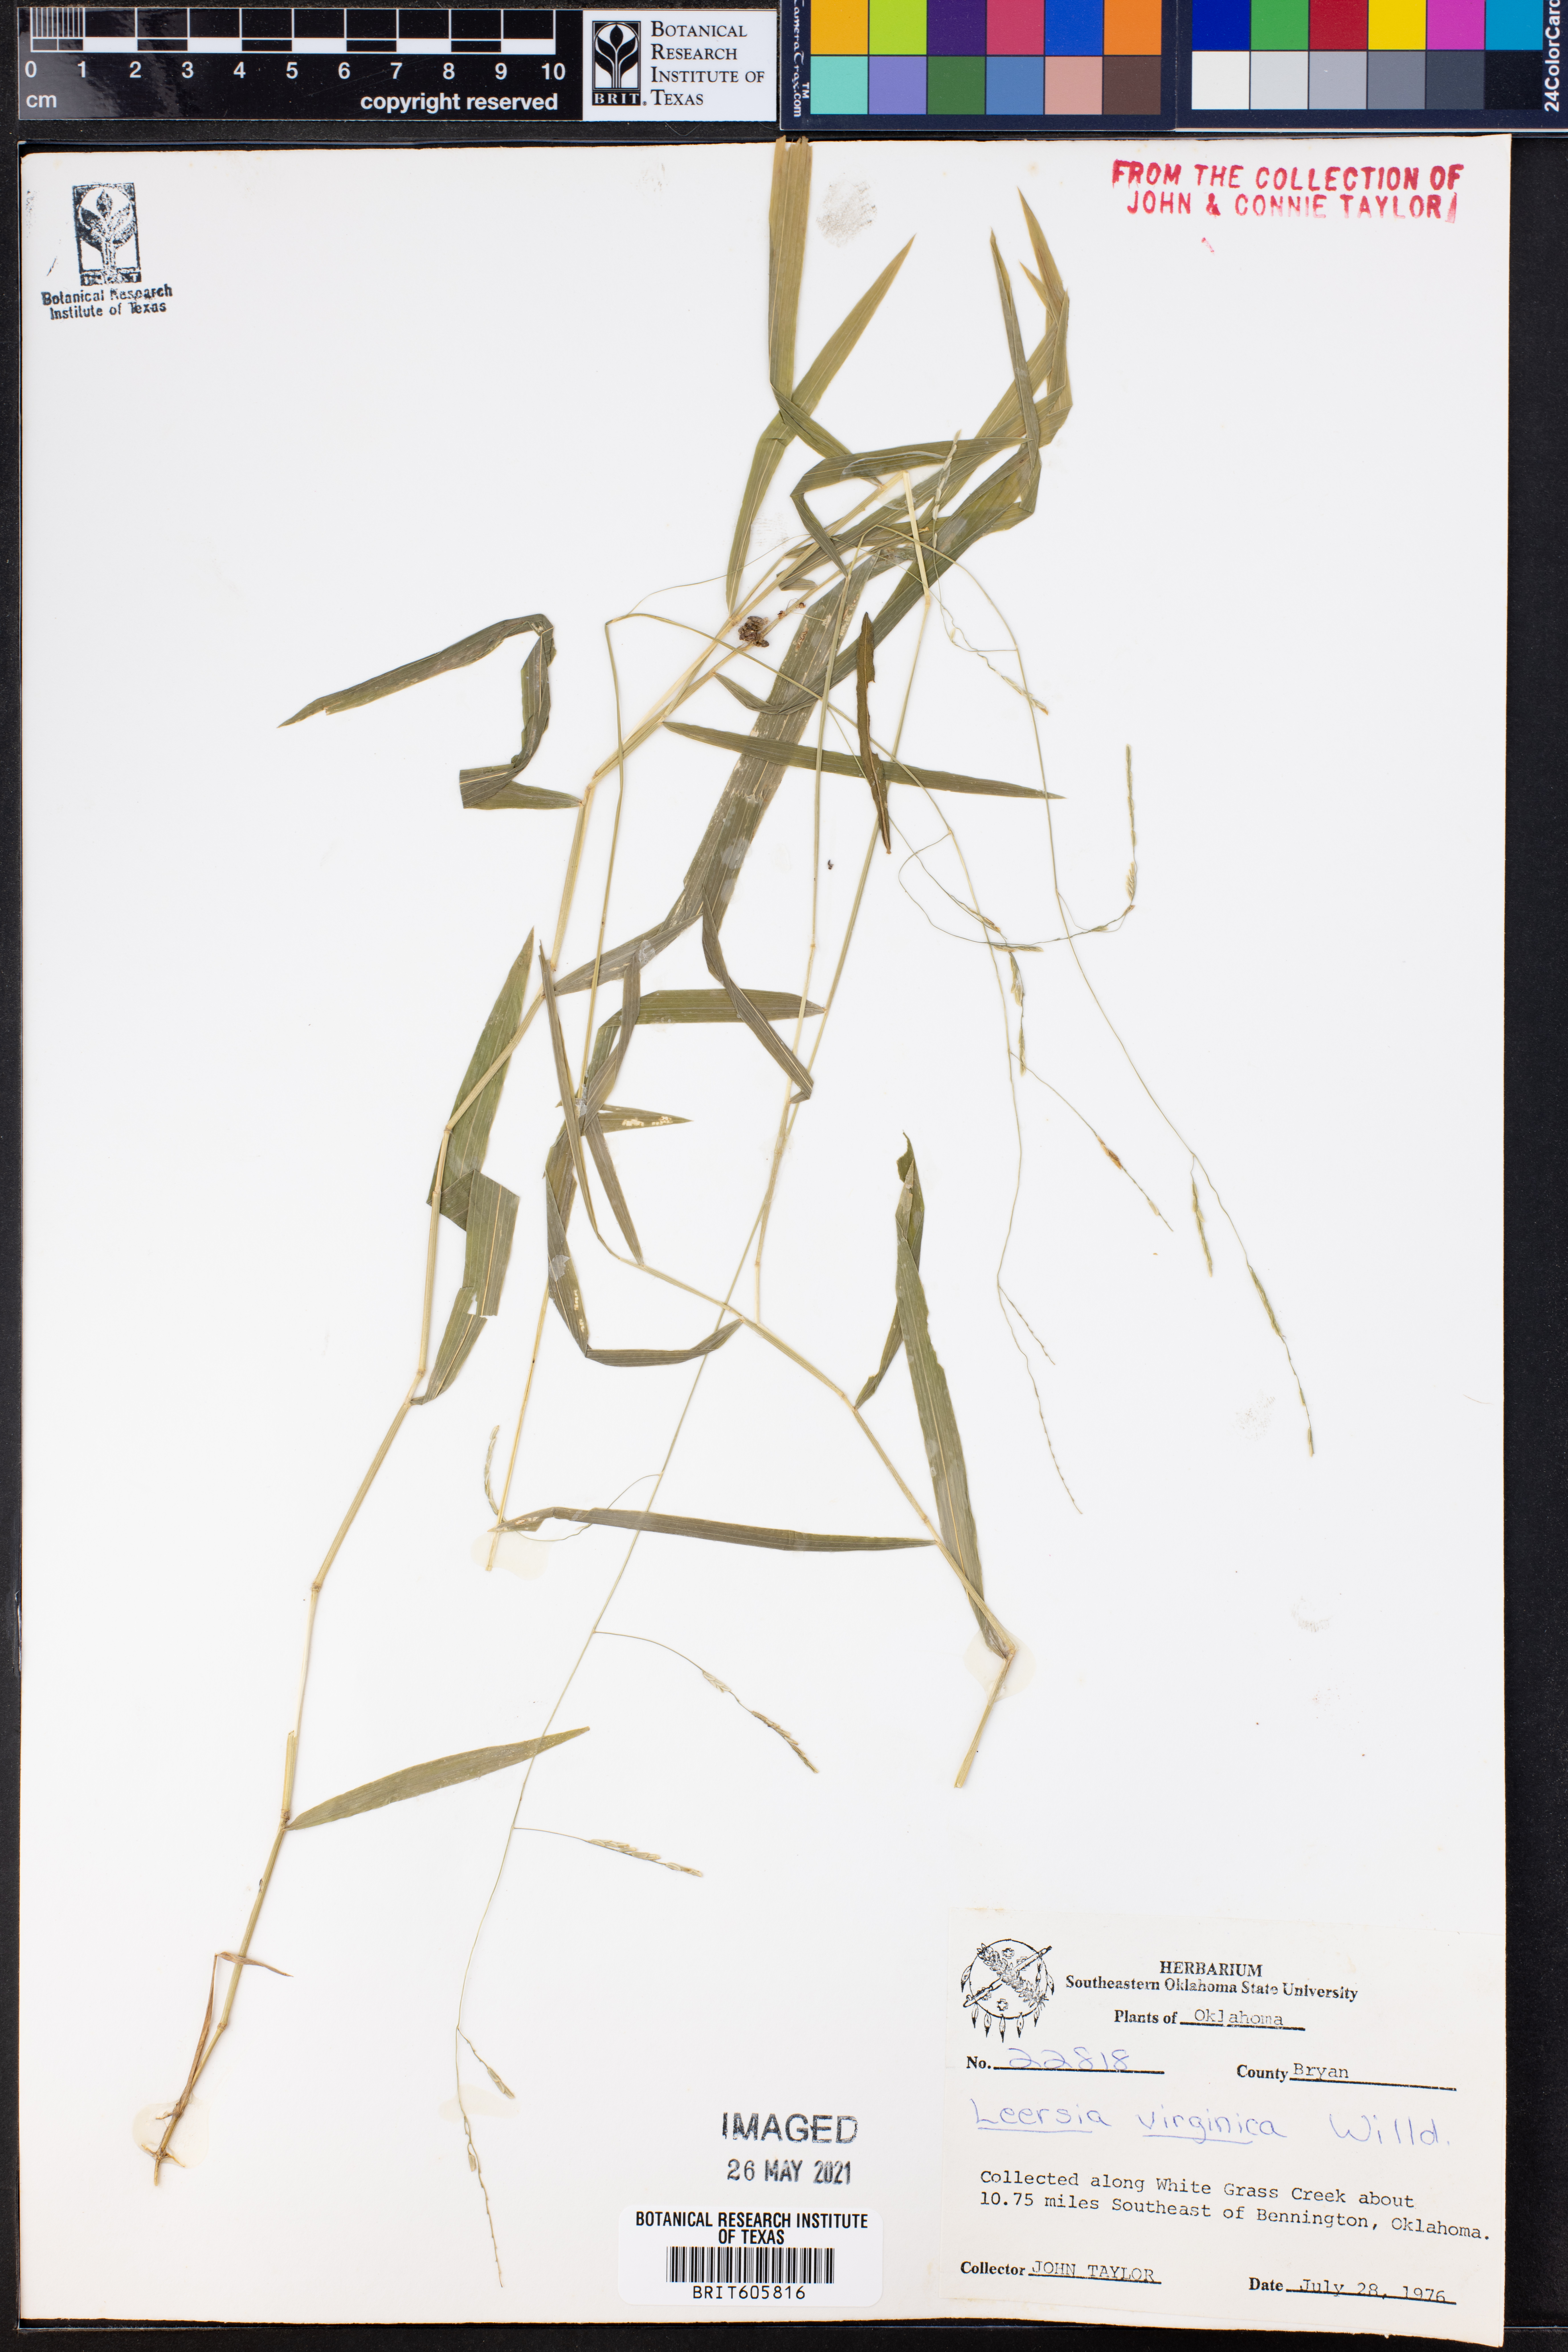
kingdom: Plantae
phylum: Tracheophyta
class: Liliopsida
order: Poales
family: Poaceae
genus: Leersia
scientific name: Leersia virginica
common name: White cutgrass
